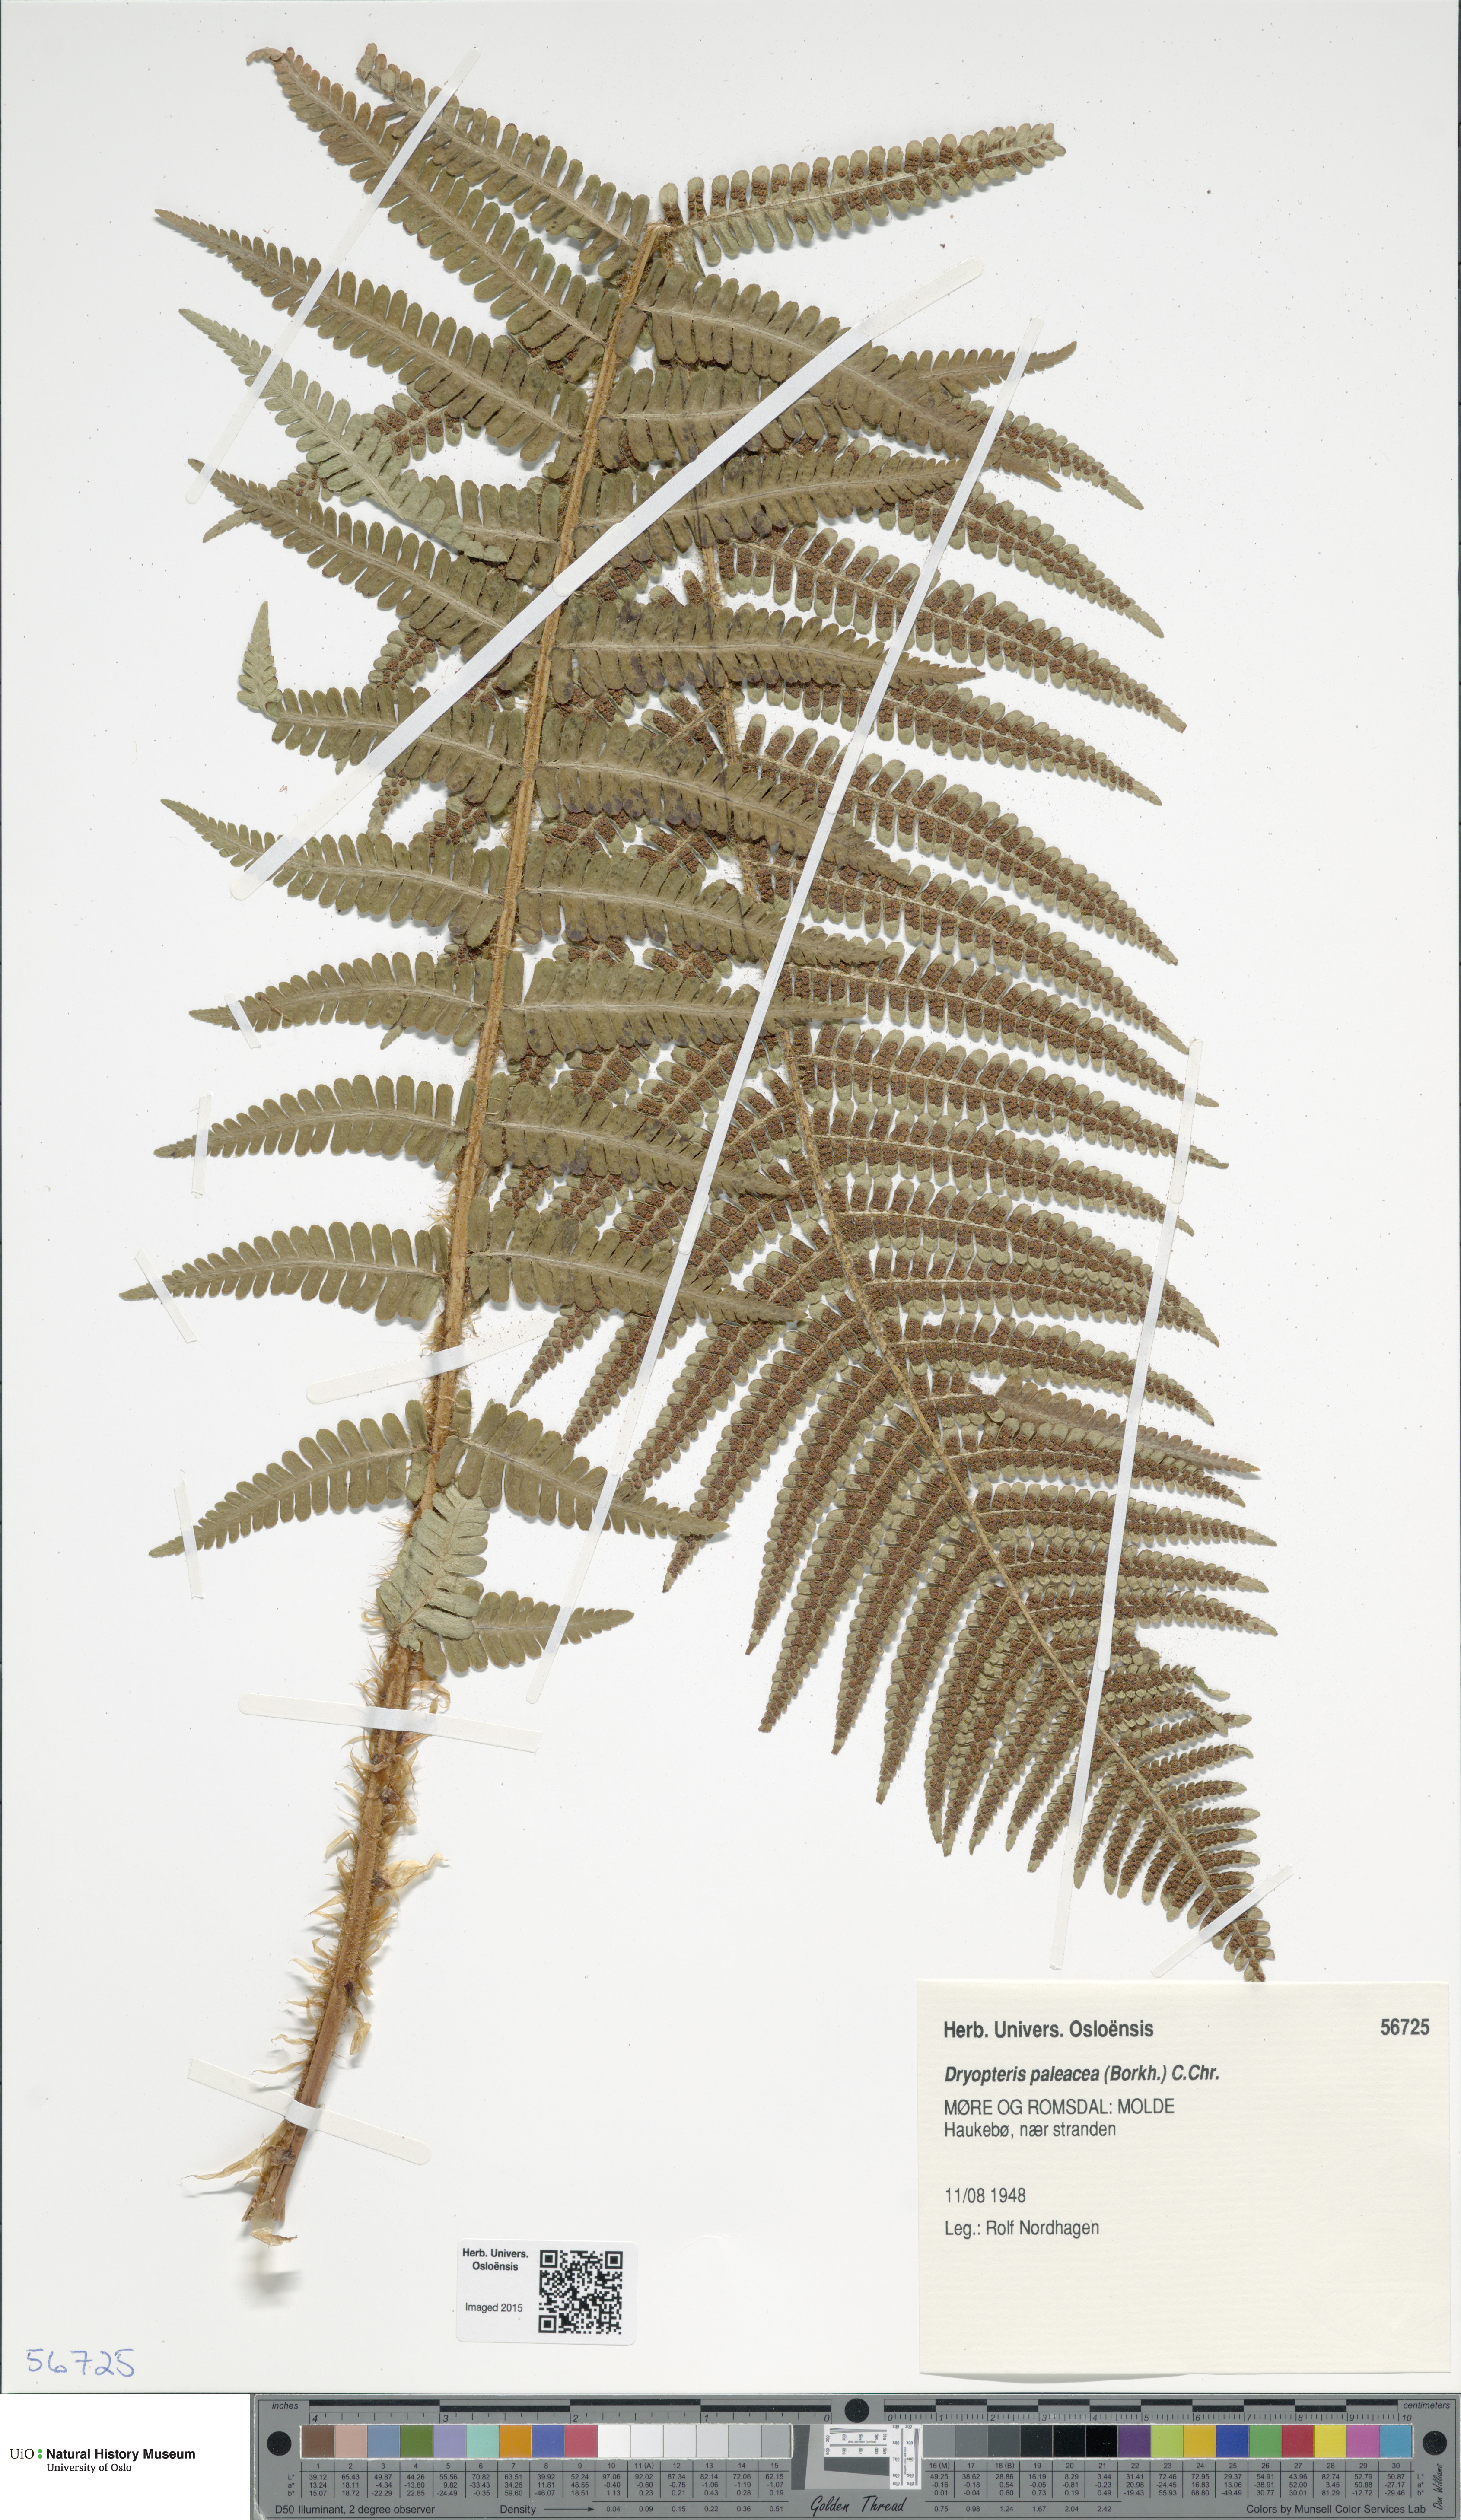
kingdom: Plantae
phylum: Tracheophyta
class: Polypodiopsida
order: Polypodiales
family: Dryopteridaceae
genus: Dryopteris
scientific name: Dryopteris wallichiana
